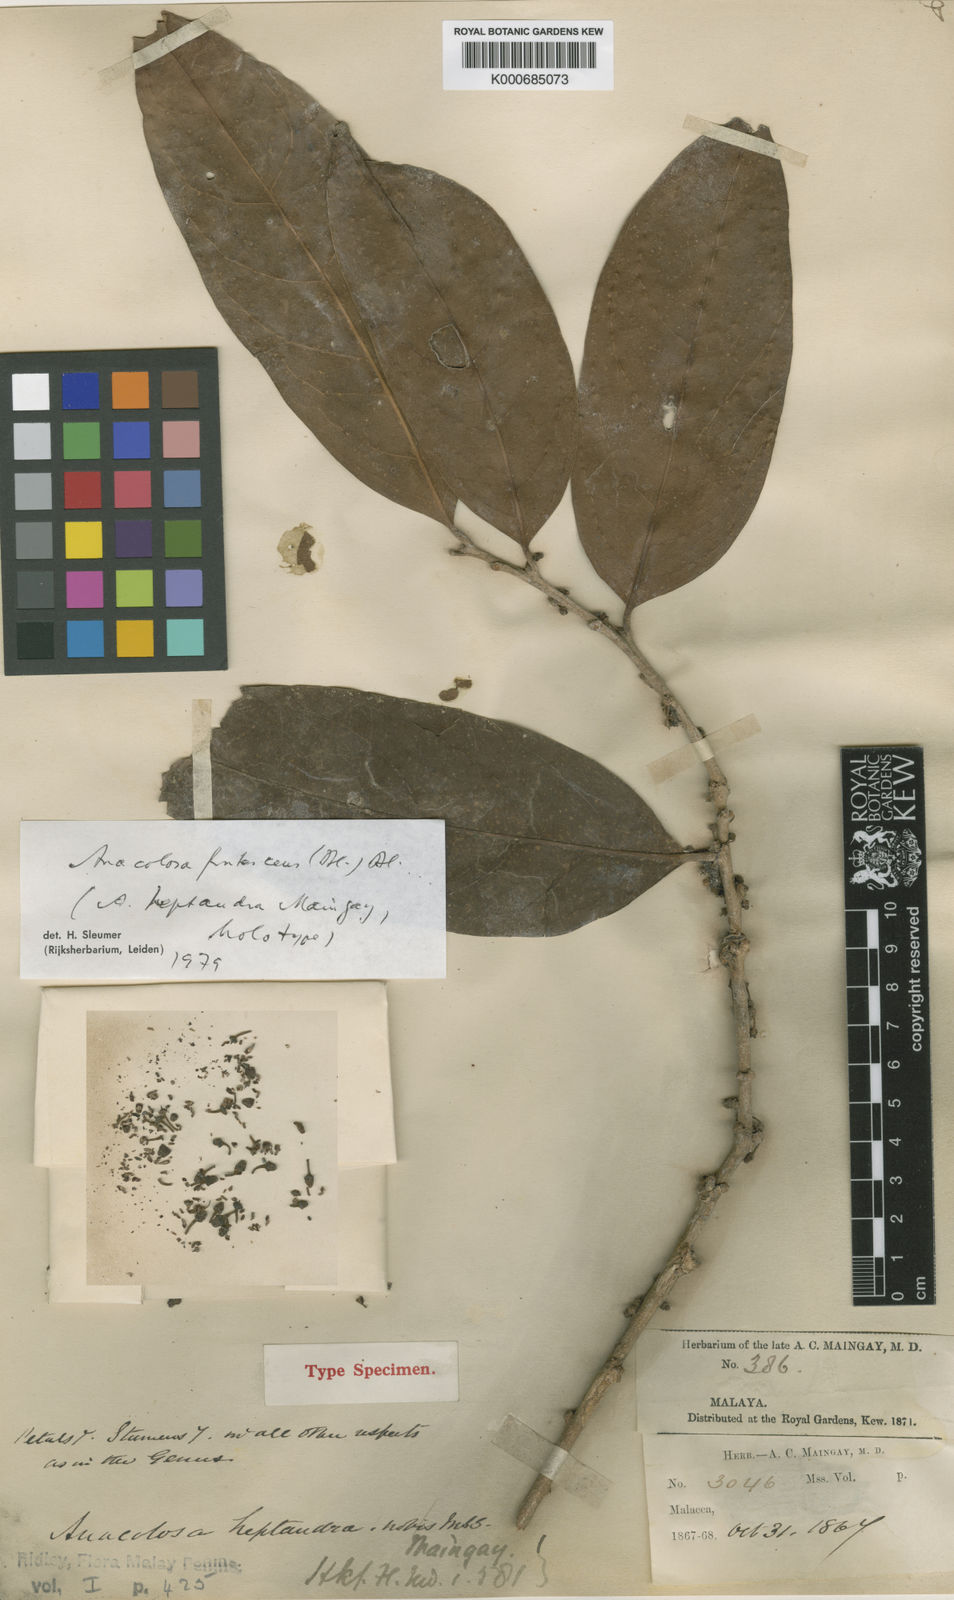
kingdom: Plantae
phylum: Tracheophyta
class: Magnoliopsida
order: Santalales
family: Aptandraceae
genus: Anacolosa
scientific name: Anacolosa frutescens
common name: Galo nut
